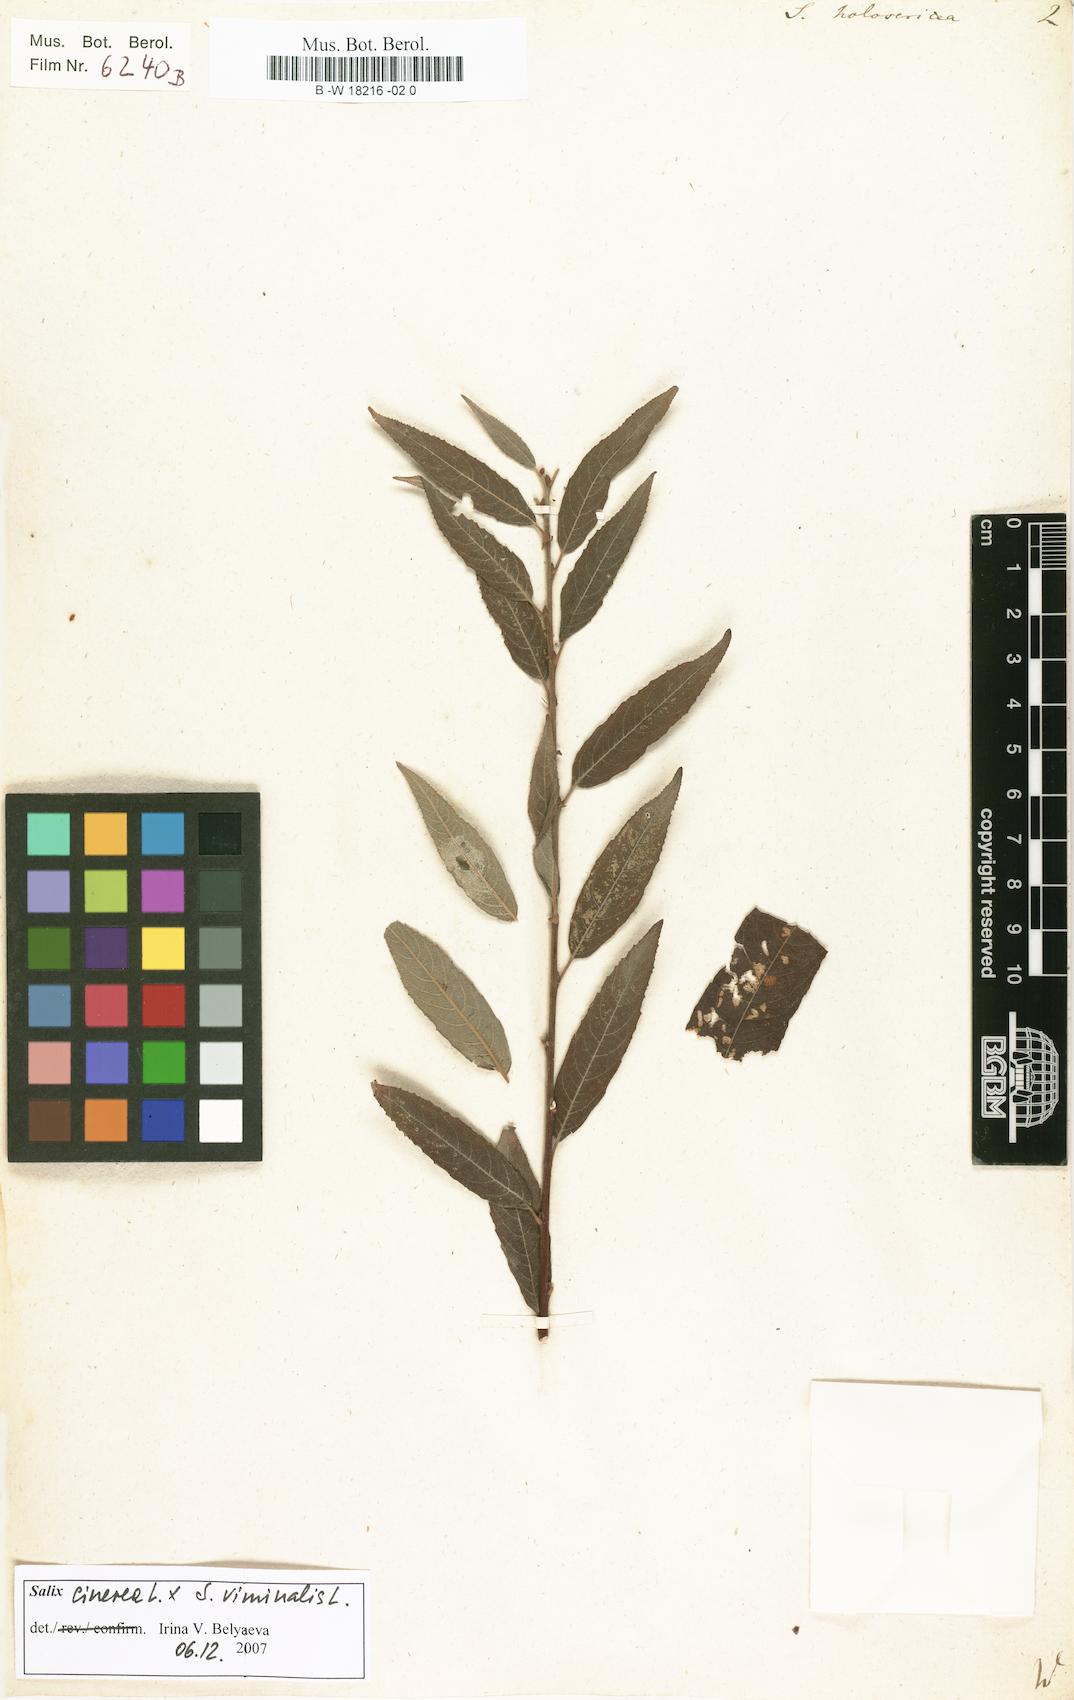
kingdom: Plantae
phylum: Tracheophyta
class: Magnoliopsida
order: Malpighiales
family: Salicaceae
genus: Salix
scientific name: Salix holosericea
